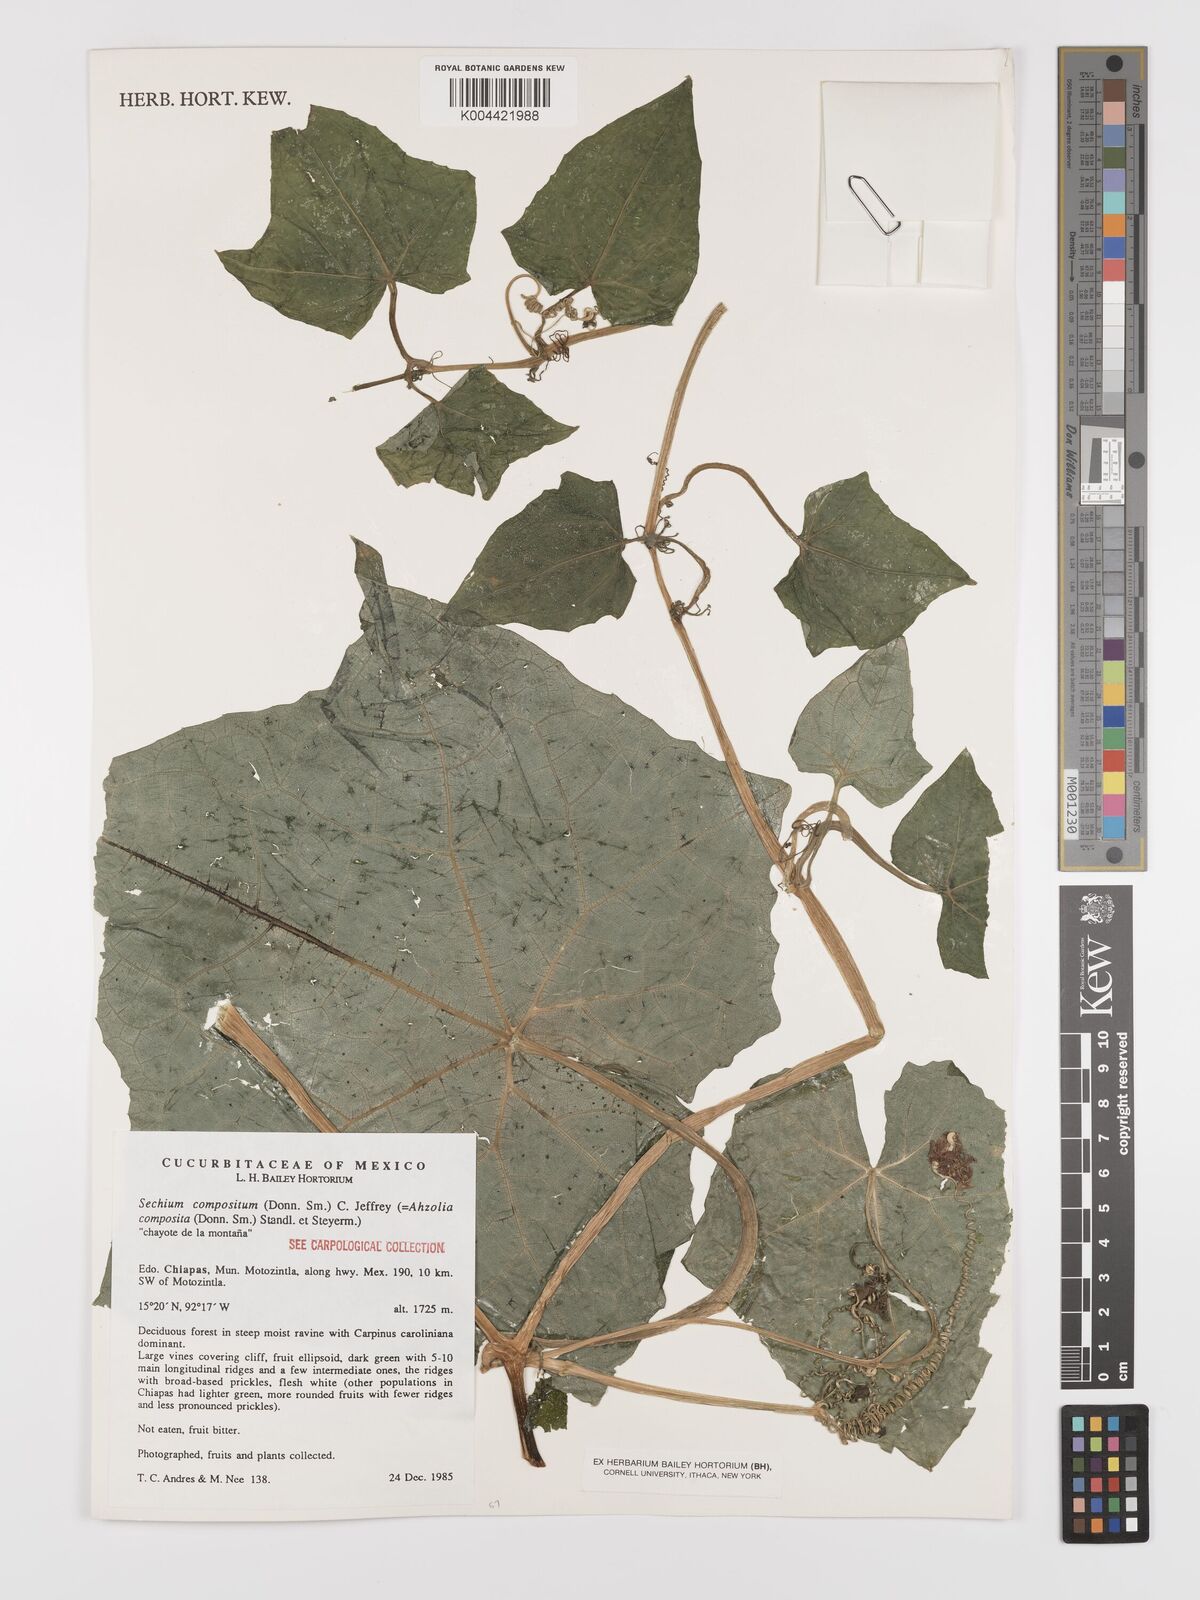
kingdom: Plantae
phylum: Tracheophyta
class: Magnoliopsida
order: Cucurbitales
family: Cucurbitaceae
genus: Sechium
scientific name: Sechium compositum
